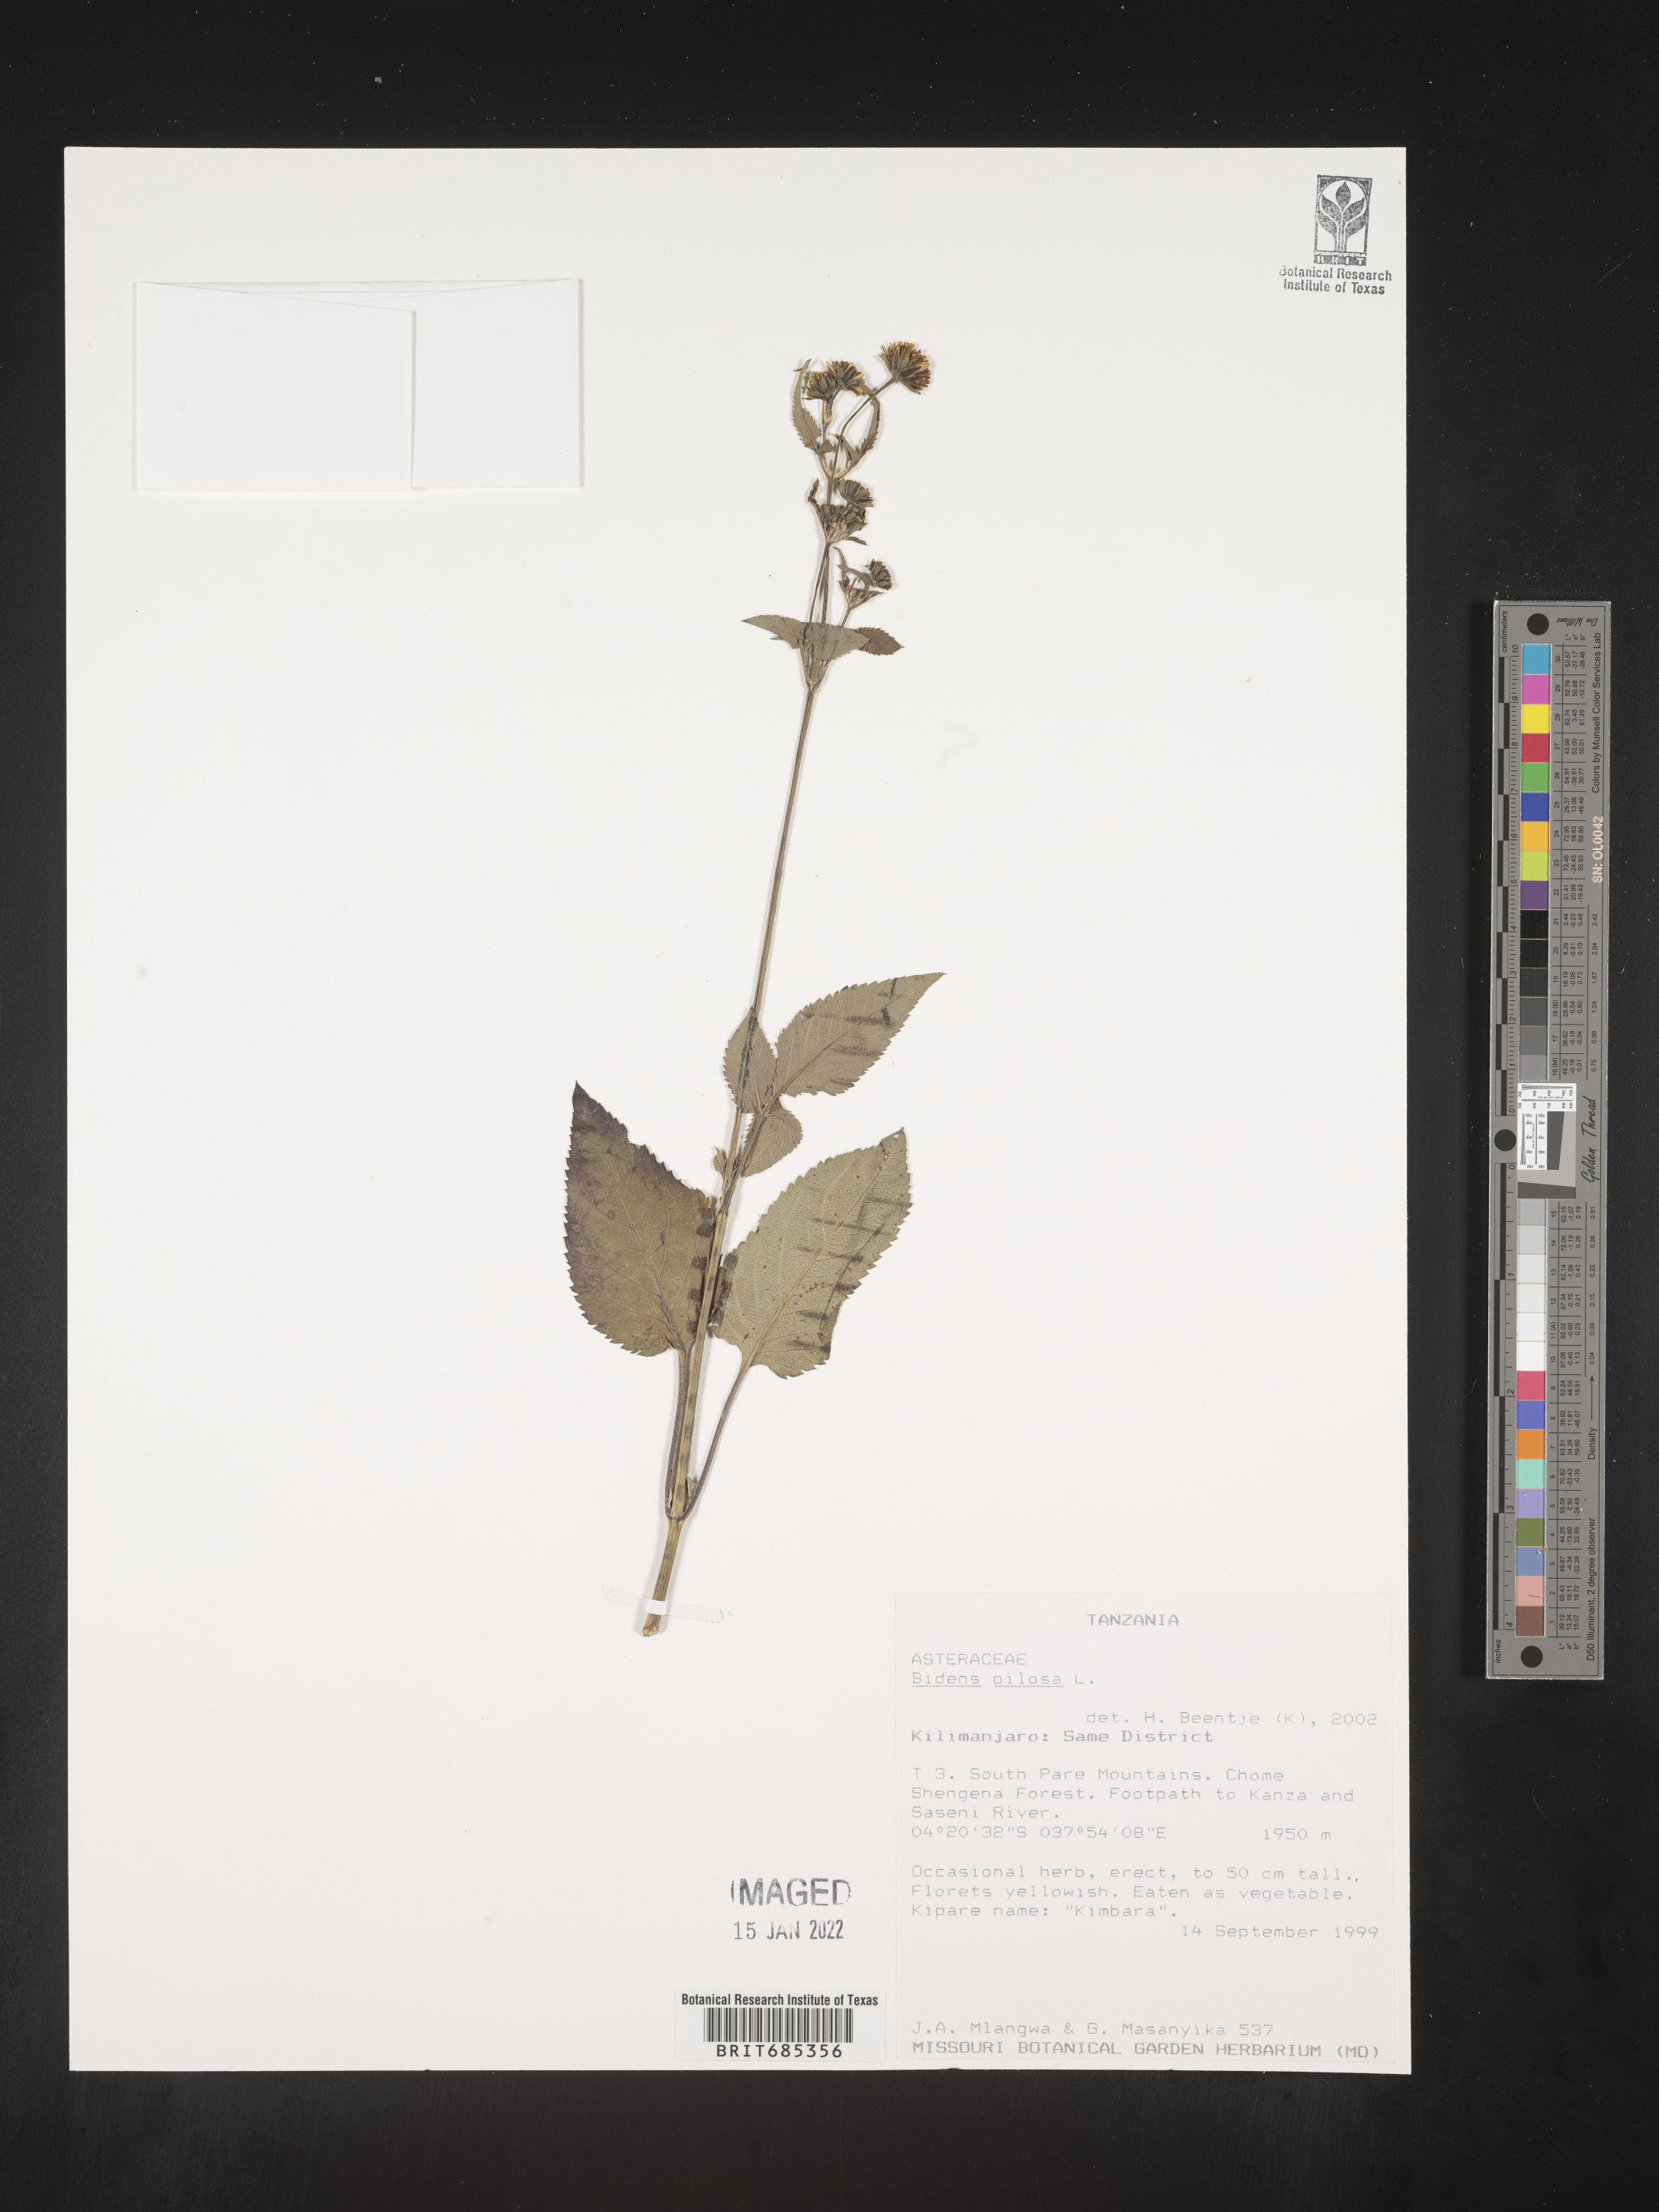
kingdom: Plantae
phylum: Tracheophyta
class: Magnoliopsida
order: Asterales
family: Asteraceae
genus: Bidens
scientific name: Bidens
